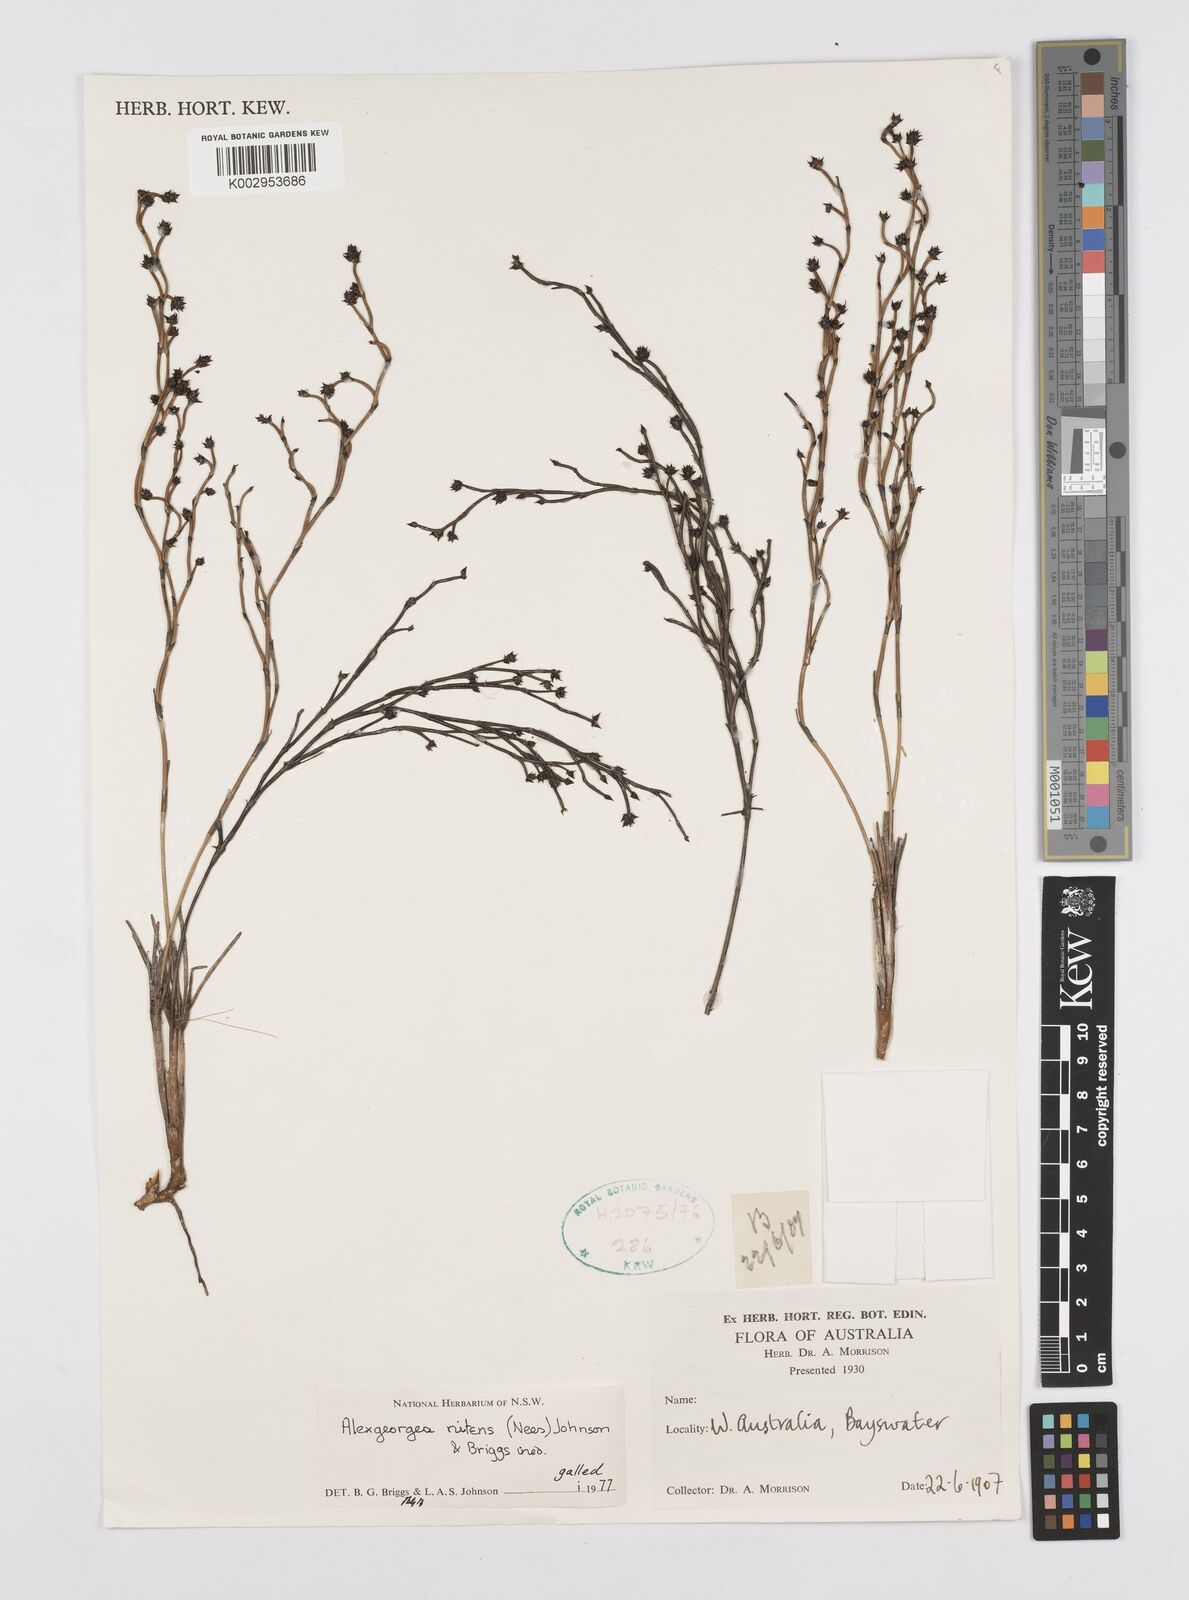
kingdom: Plantae
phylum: Tracheophyta
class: Liliopsida
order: Poales
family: Restionaceae
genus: Alexgeorgea
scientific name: Alexgeorgea nitens
